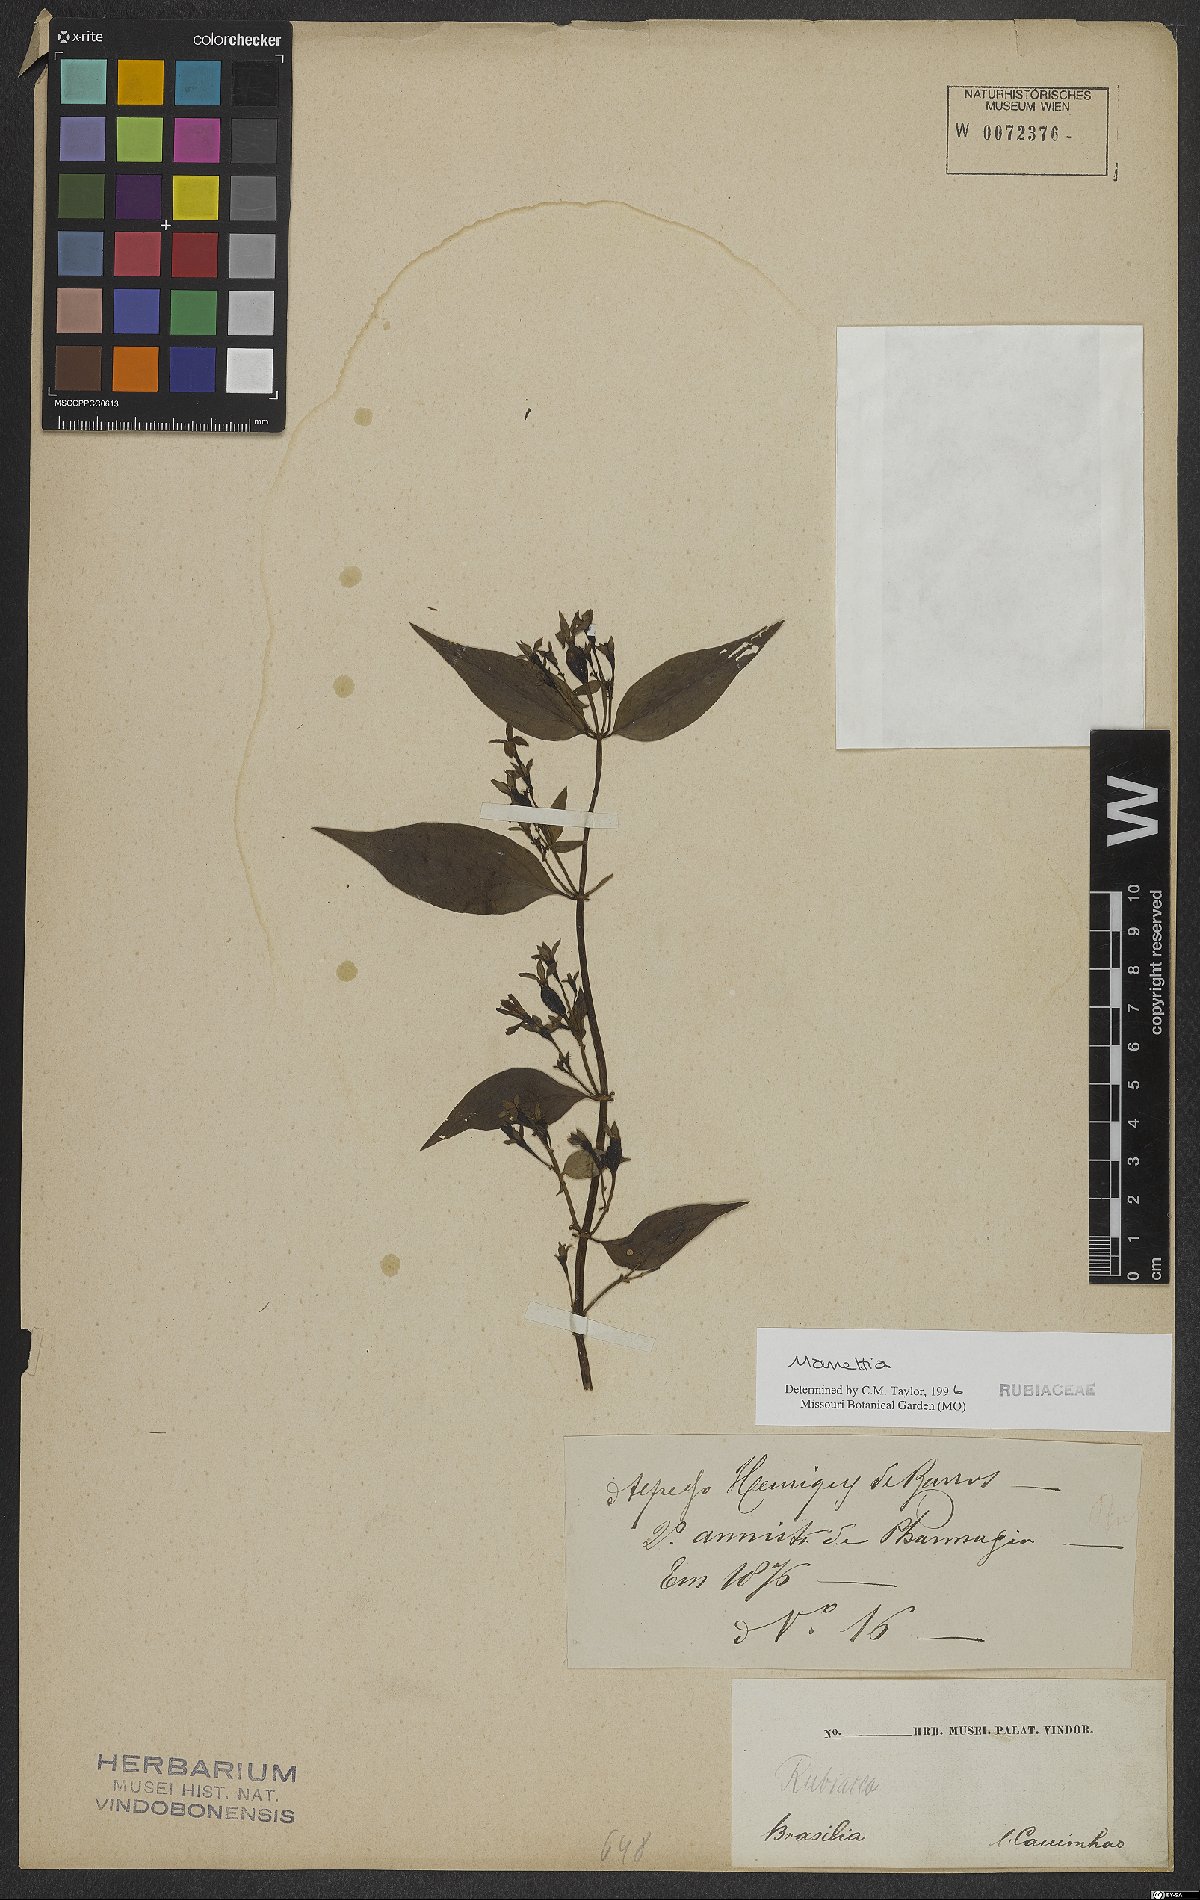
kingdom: Plantae
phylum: Tracheophyta
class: Magnoliopsida
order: Gentianales
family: Rubiaceae
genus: Manettia
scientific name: Manettia
